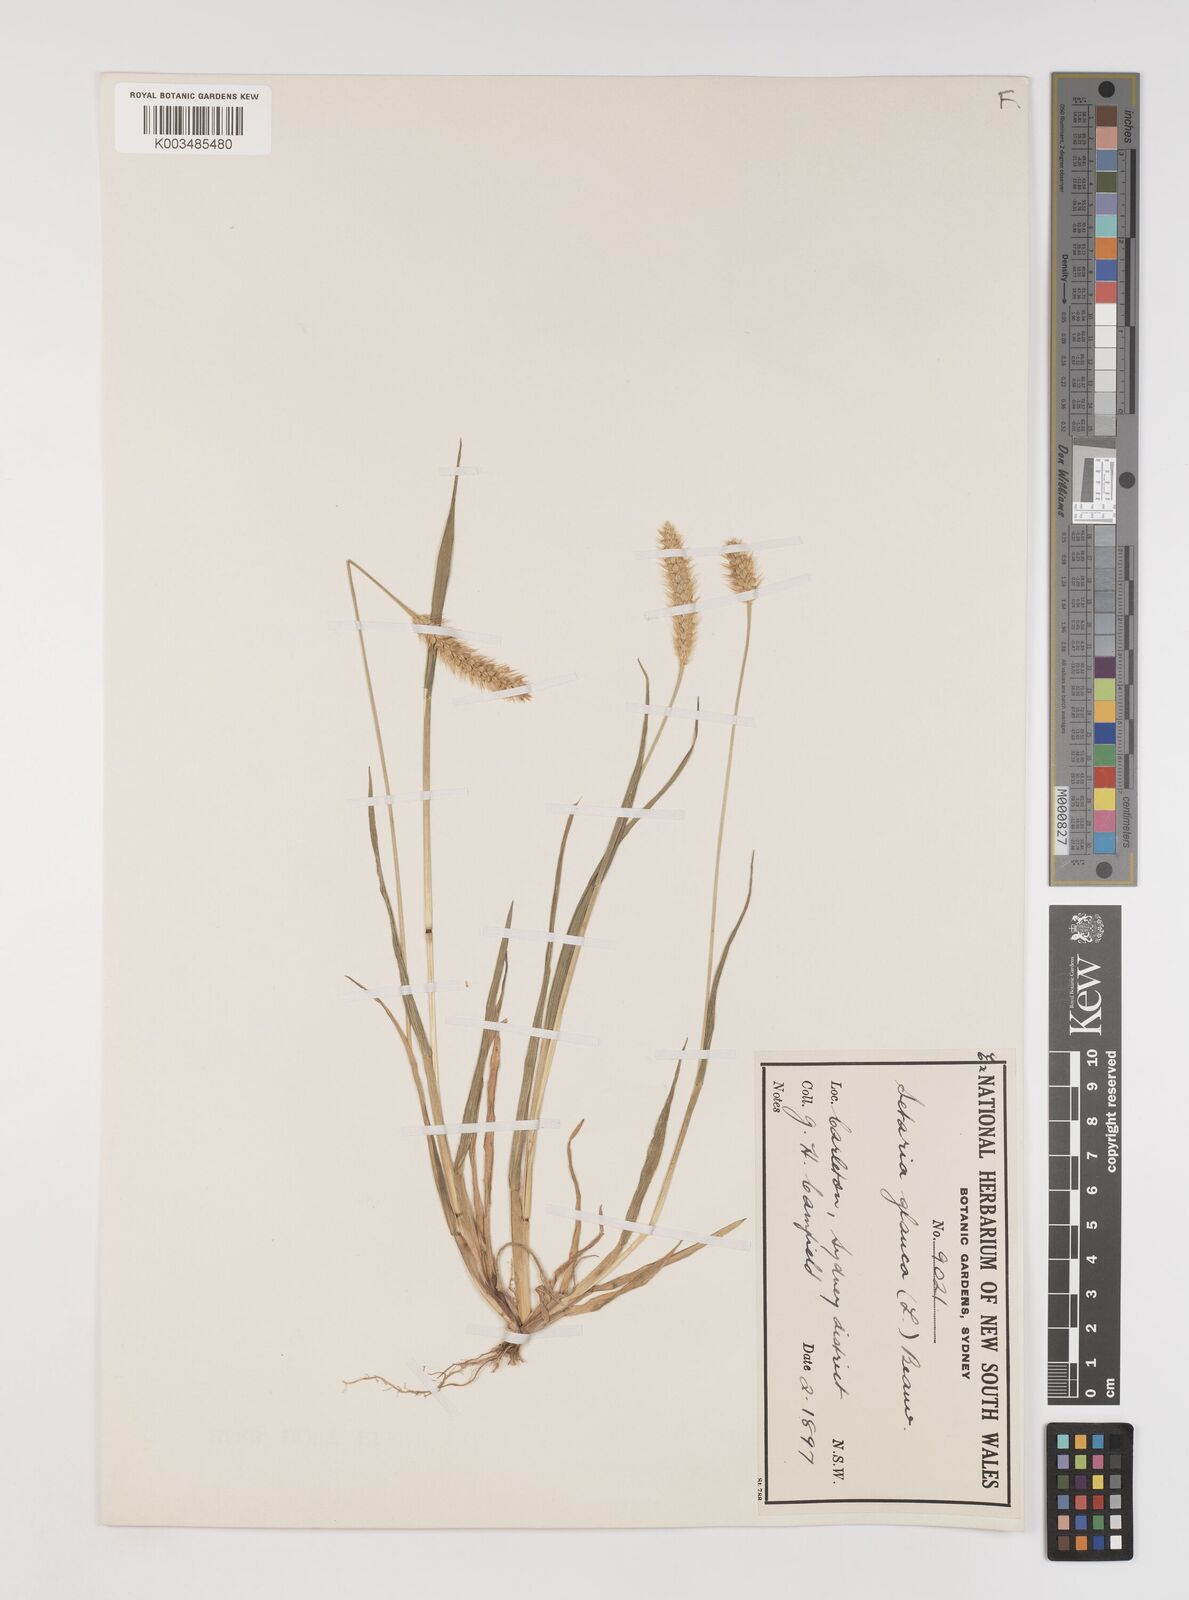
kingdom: Plantae
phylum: Tracheophyta
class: Liliopsida
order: Poales
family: Poaceae
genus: Setaria
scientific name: Setaria pumila
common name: Yellow bristle-grass
